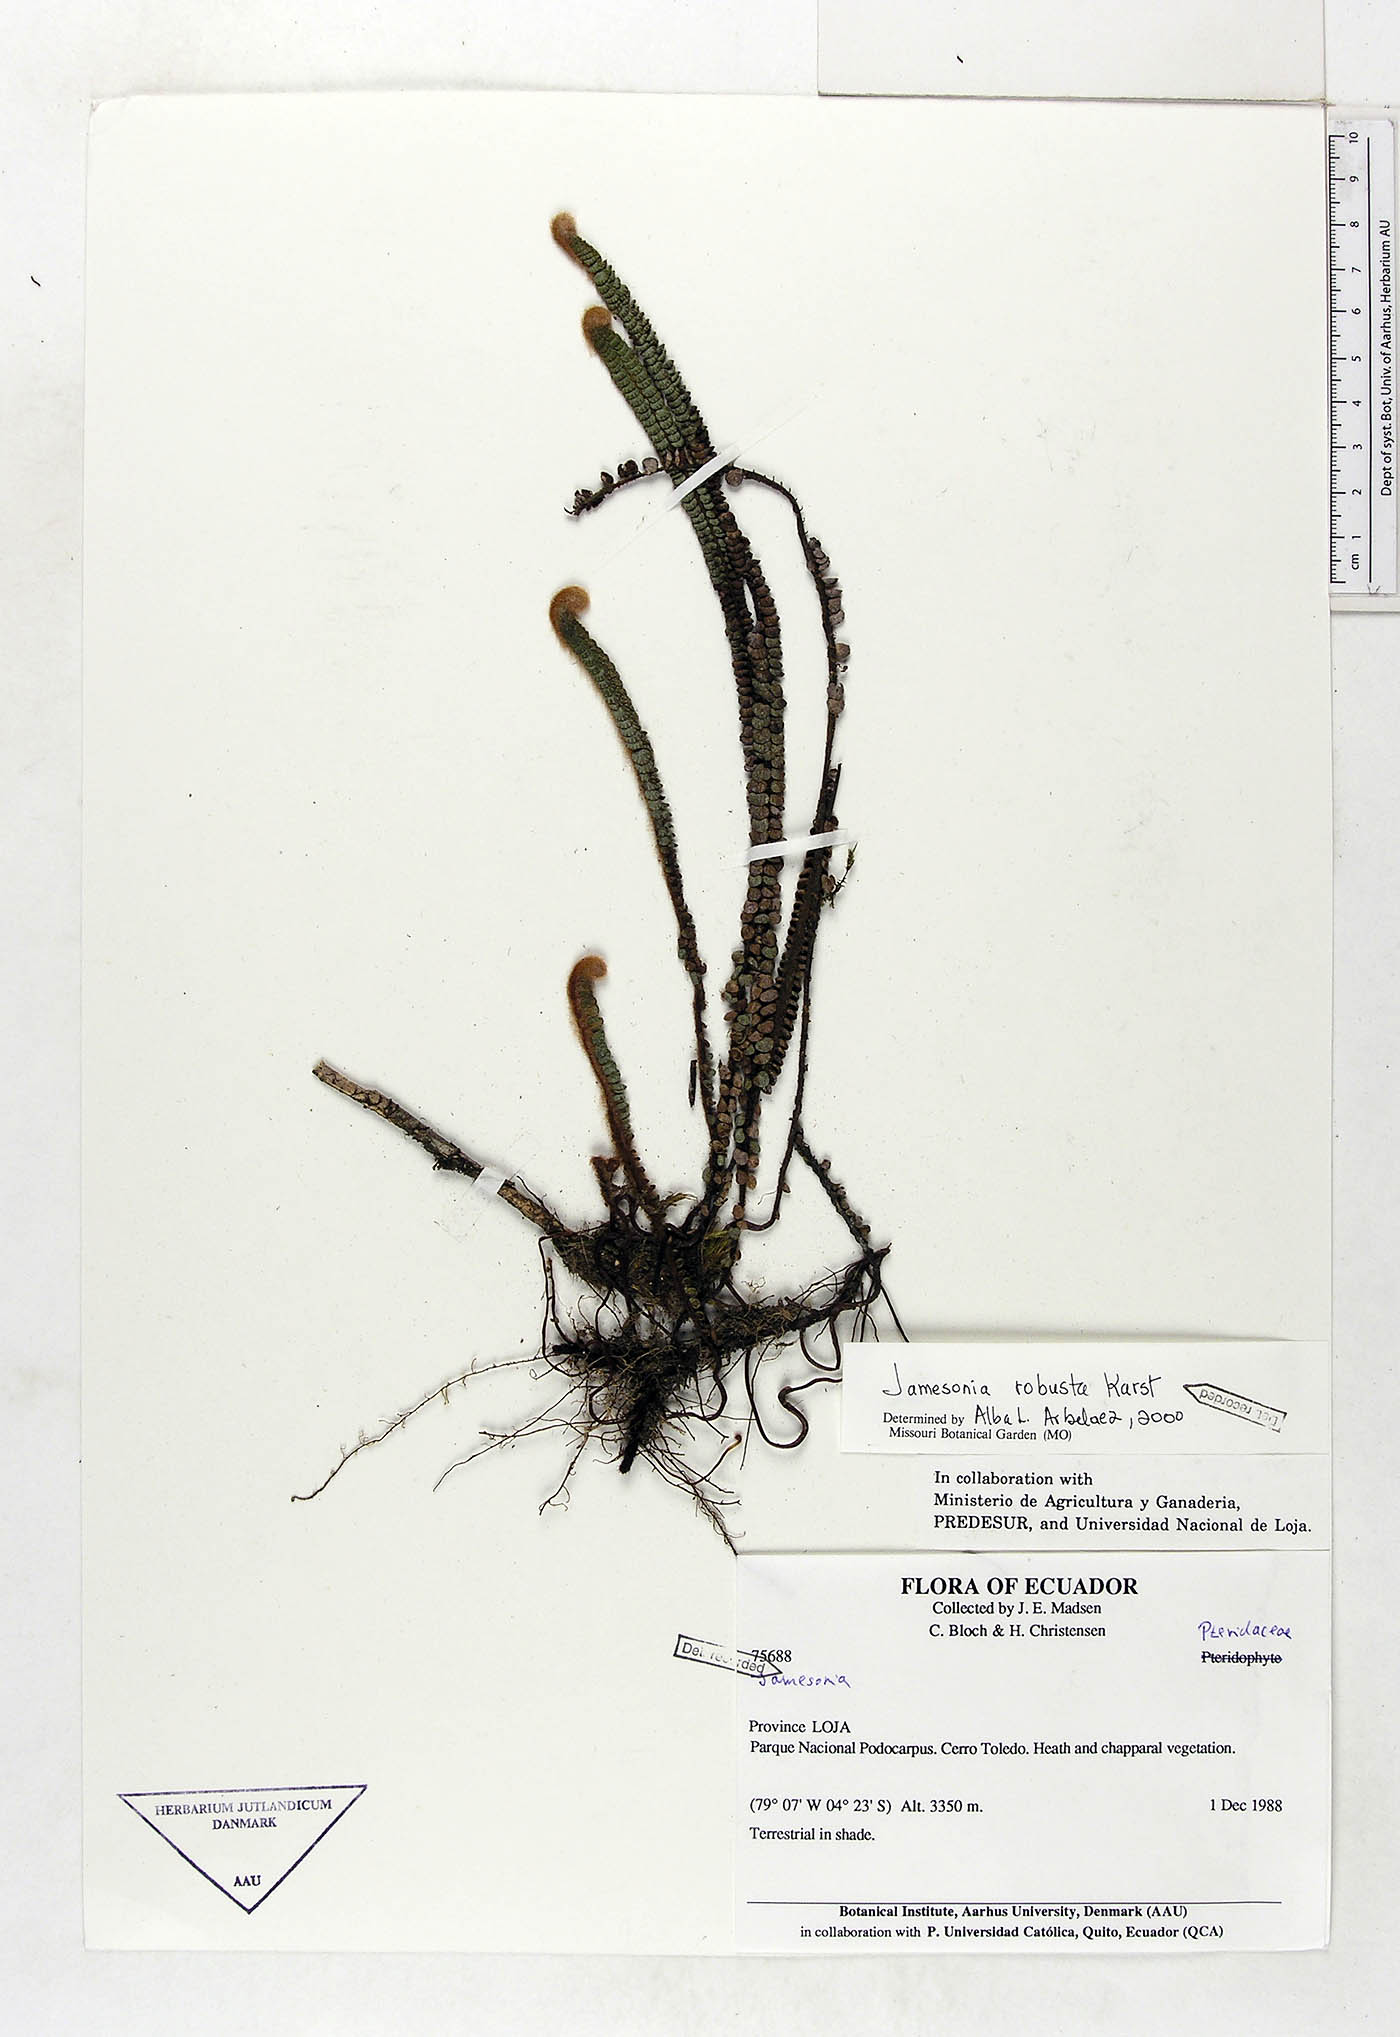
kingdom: Plantae
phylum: Tracheophyta
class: Polypodiopsida
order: Polypodiales
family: Pteridaceae
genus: Jamesonia
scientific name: Jamesonia robusta
